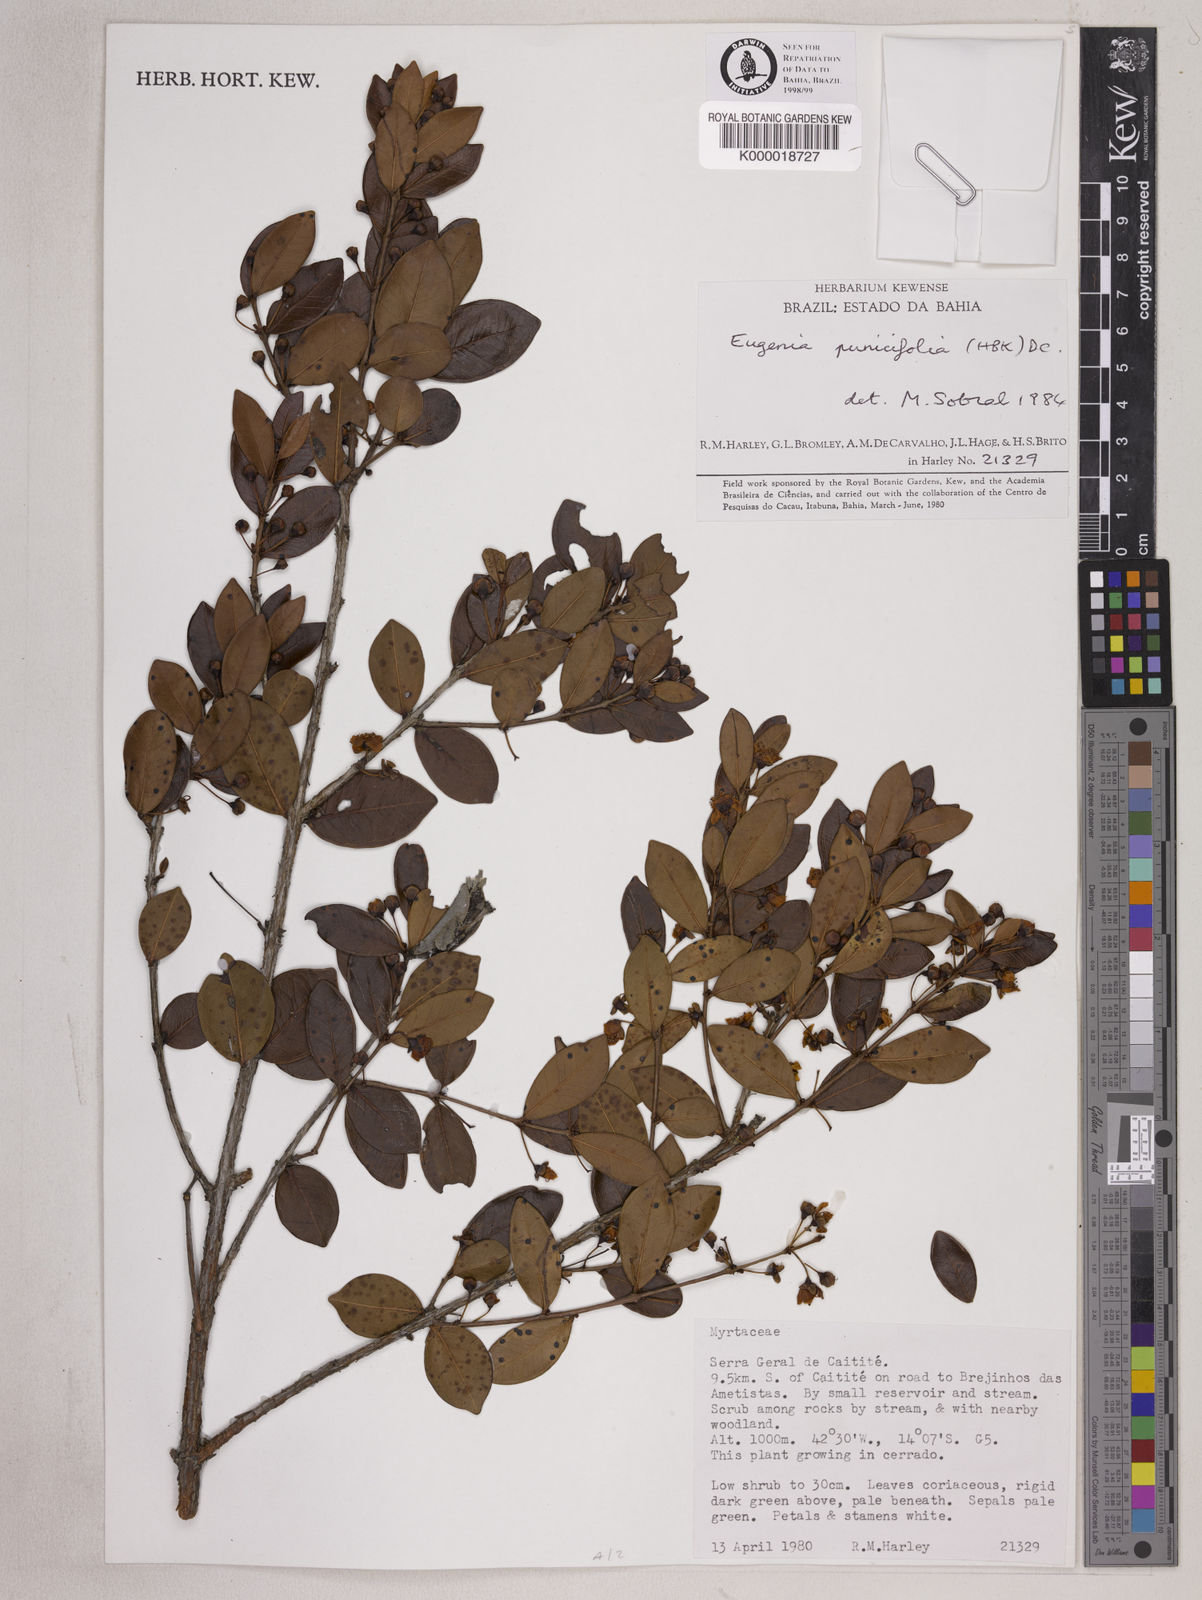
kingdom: Plantae
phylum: Tracheophyta
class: Magnoliopsida
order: Myrtales
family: Myrtaceae
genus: Eugenia
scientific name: Eugenia punicifolia
